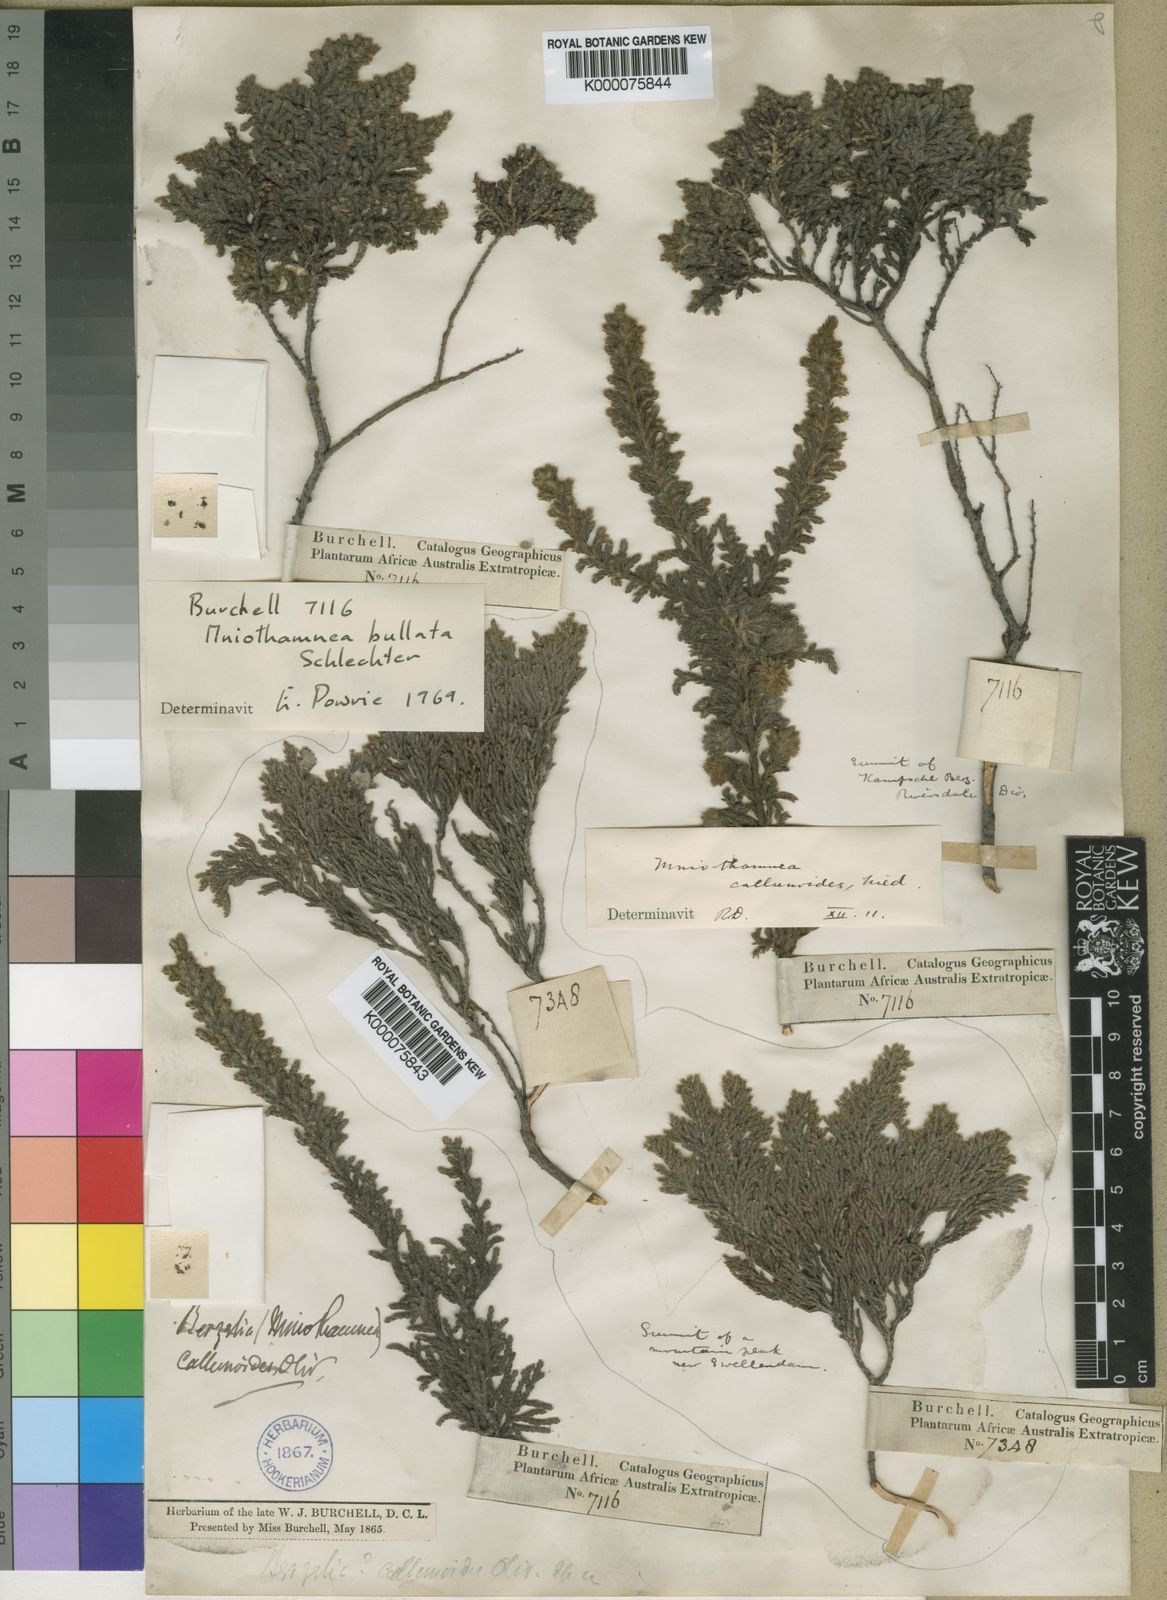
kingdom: Plantae
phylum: Tracheophyta
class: Magnoliopsida
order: Bruniales
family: Bruniaceae
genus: Brunia
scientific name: Brunia
